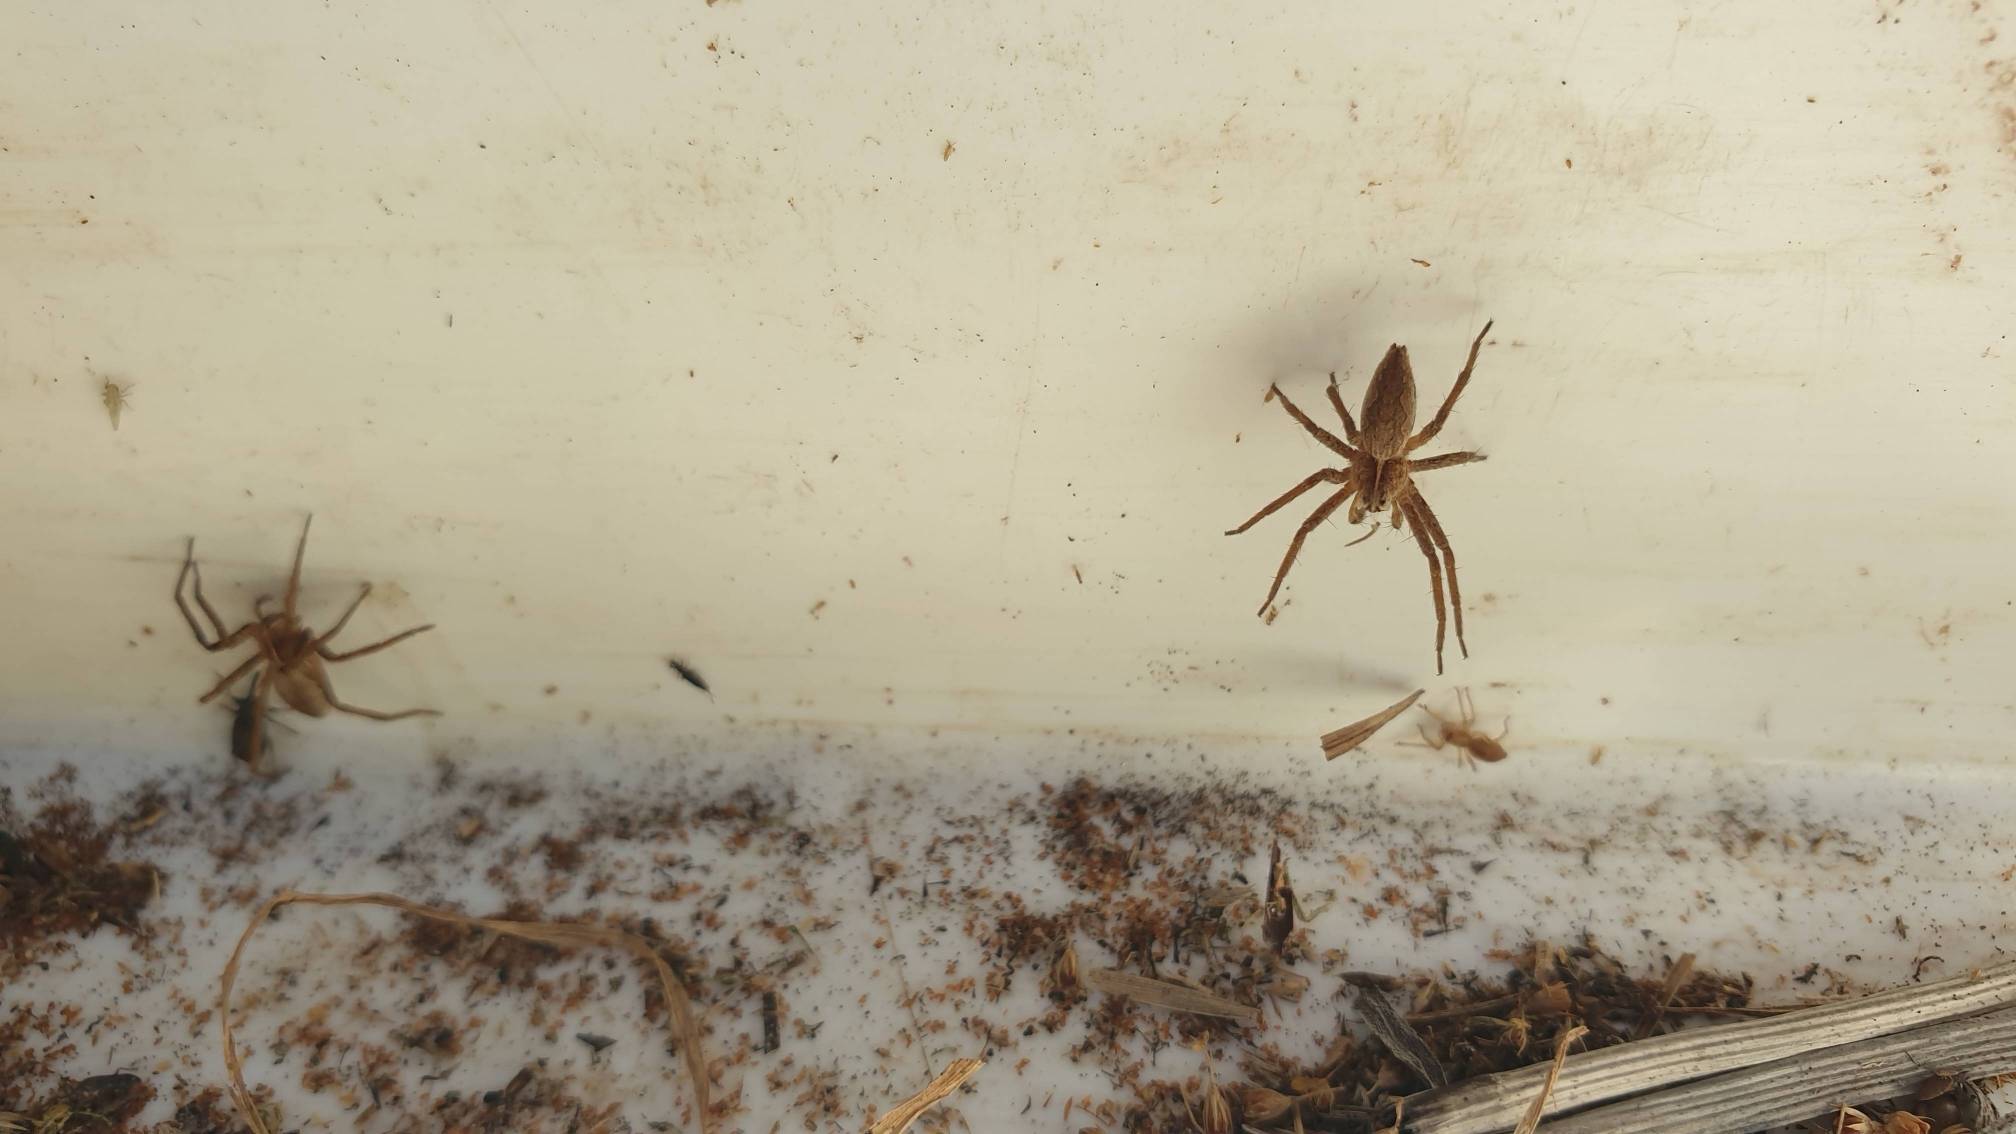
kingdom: Animalia
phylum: Arthropoda
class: Arachnida
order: Araneae
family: Pisauridae
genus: Pisaura
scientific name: Pisaura mirabilis
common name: Almindelig rovedderkop
